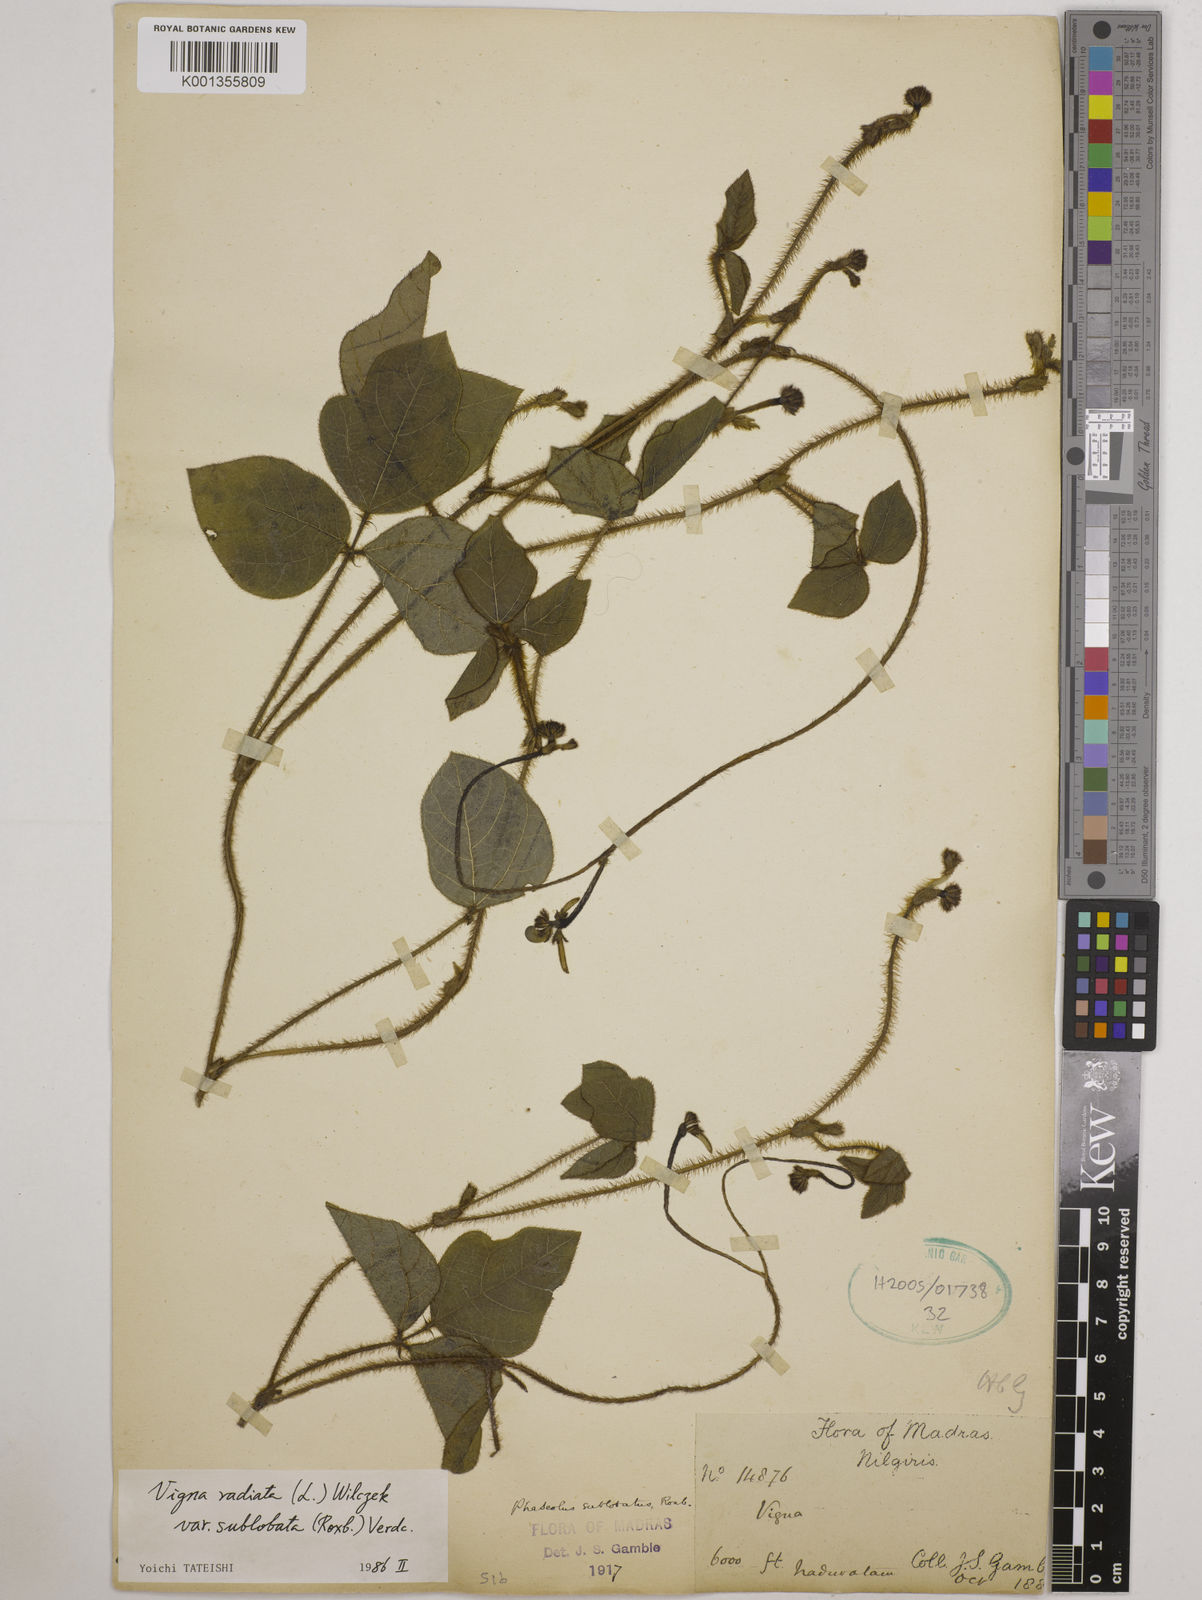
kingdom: Plantae
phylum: Tracheophyta
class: Magnoliopsida
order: Fabales
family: Fabaceae
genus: Vigna
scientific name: Vigna radiata
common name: Mung-bean
